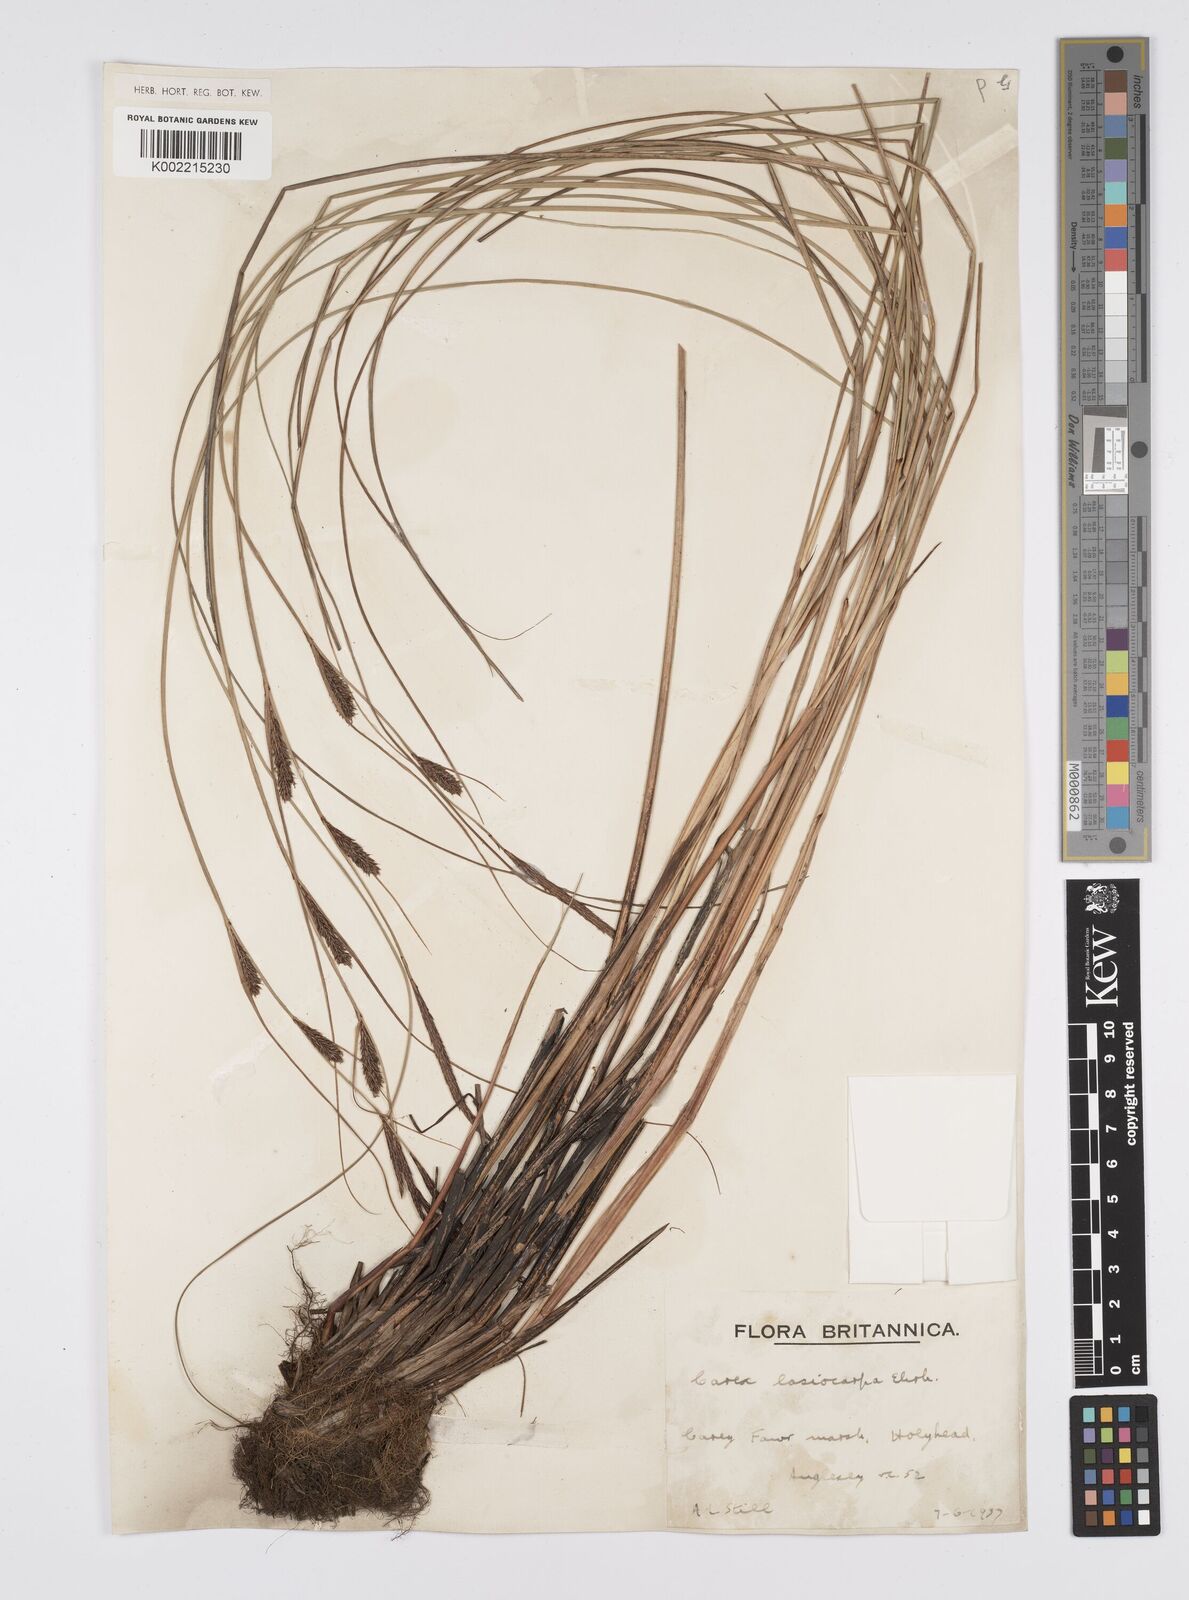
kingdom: Plantae
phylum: Tracheophyta
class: Liliopsida
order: Poales
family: Cyperaceae
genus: Carex
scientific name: Carex lasiocarpa
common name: Slender sedge
